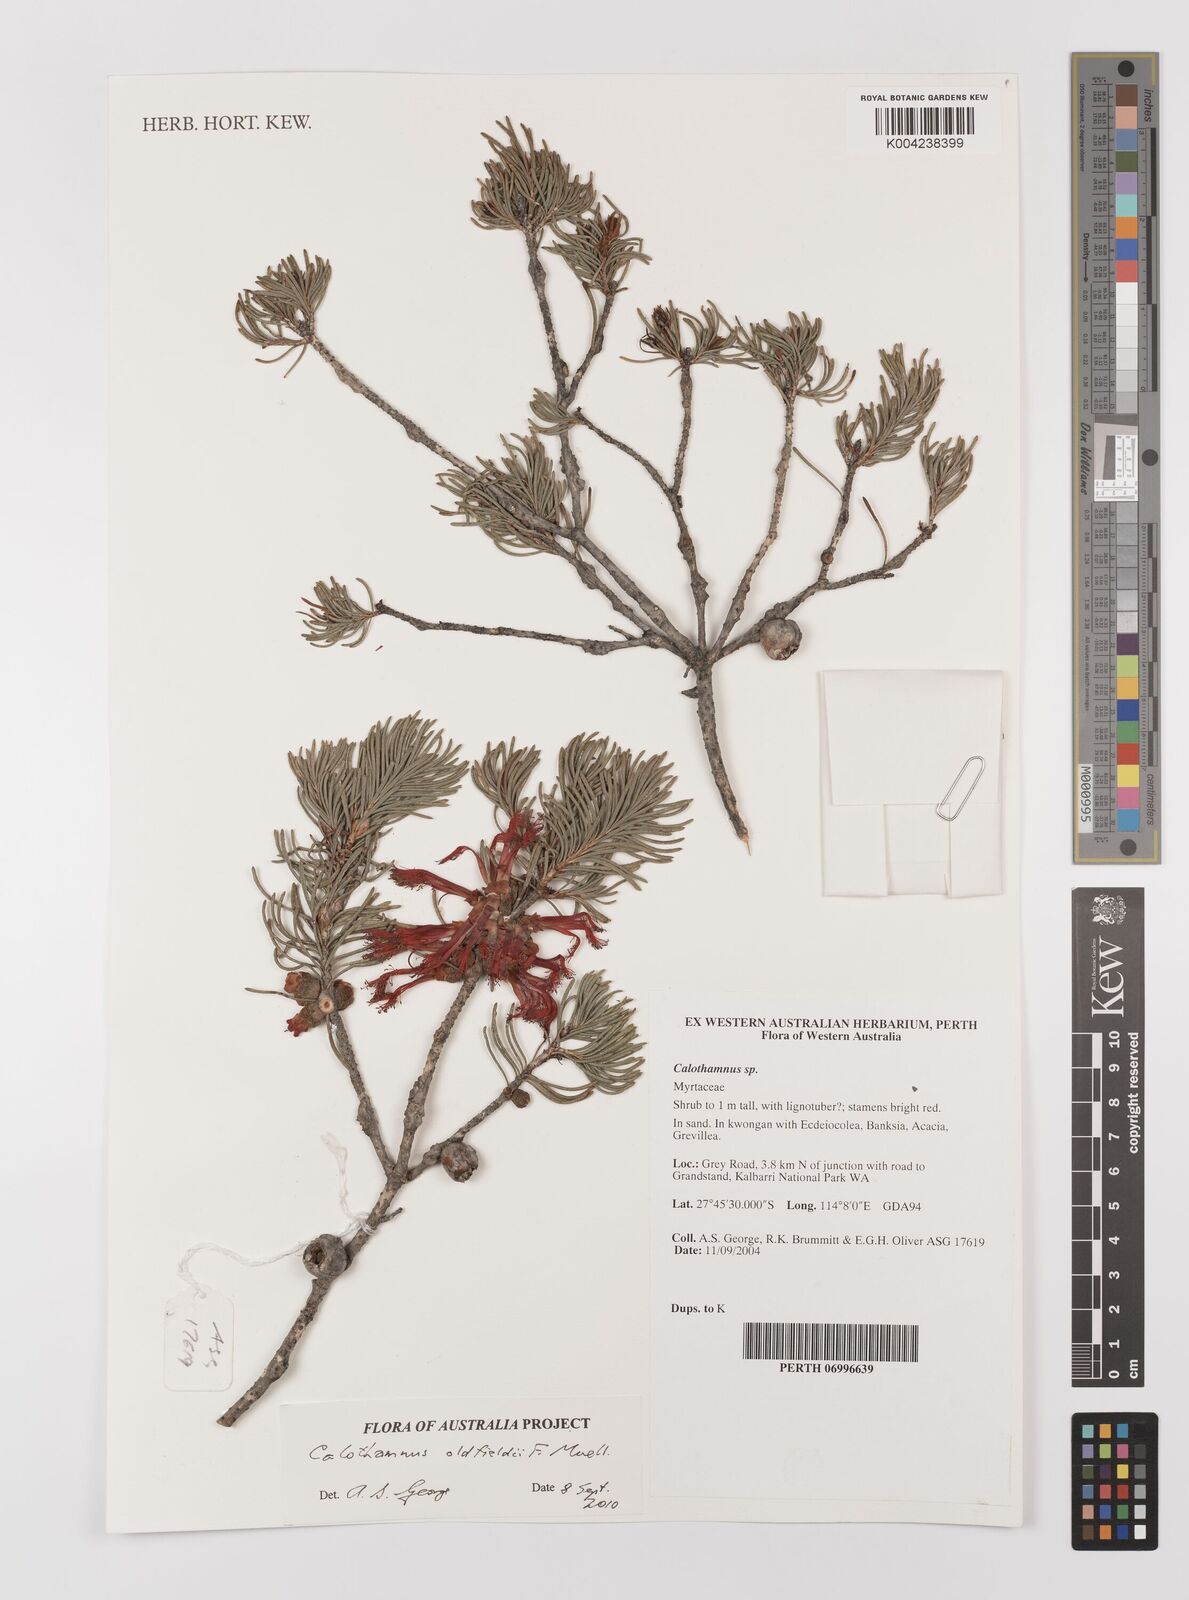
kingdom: Plantae
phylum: Tracheophyta
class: Magnoliopsida
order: Myrtales
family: Myrtaceae
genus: Melaleuca
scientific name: Melaleuca augusti-oldfieldii
